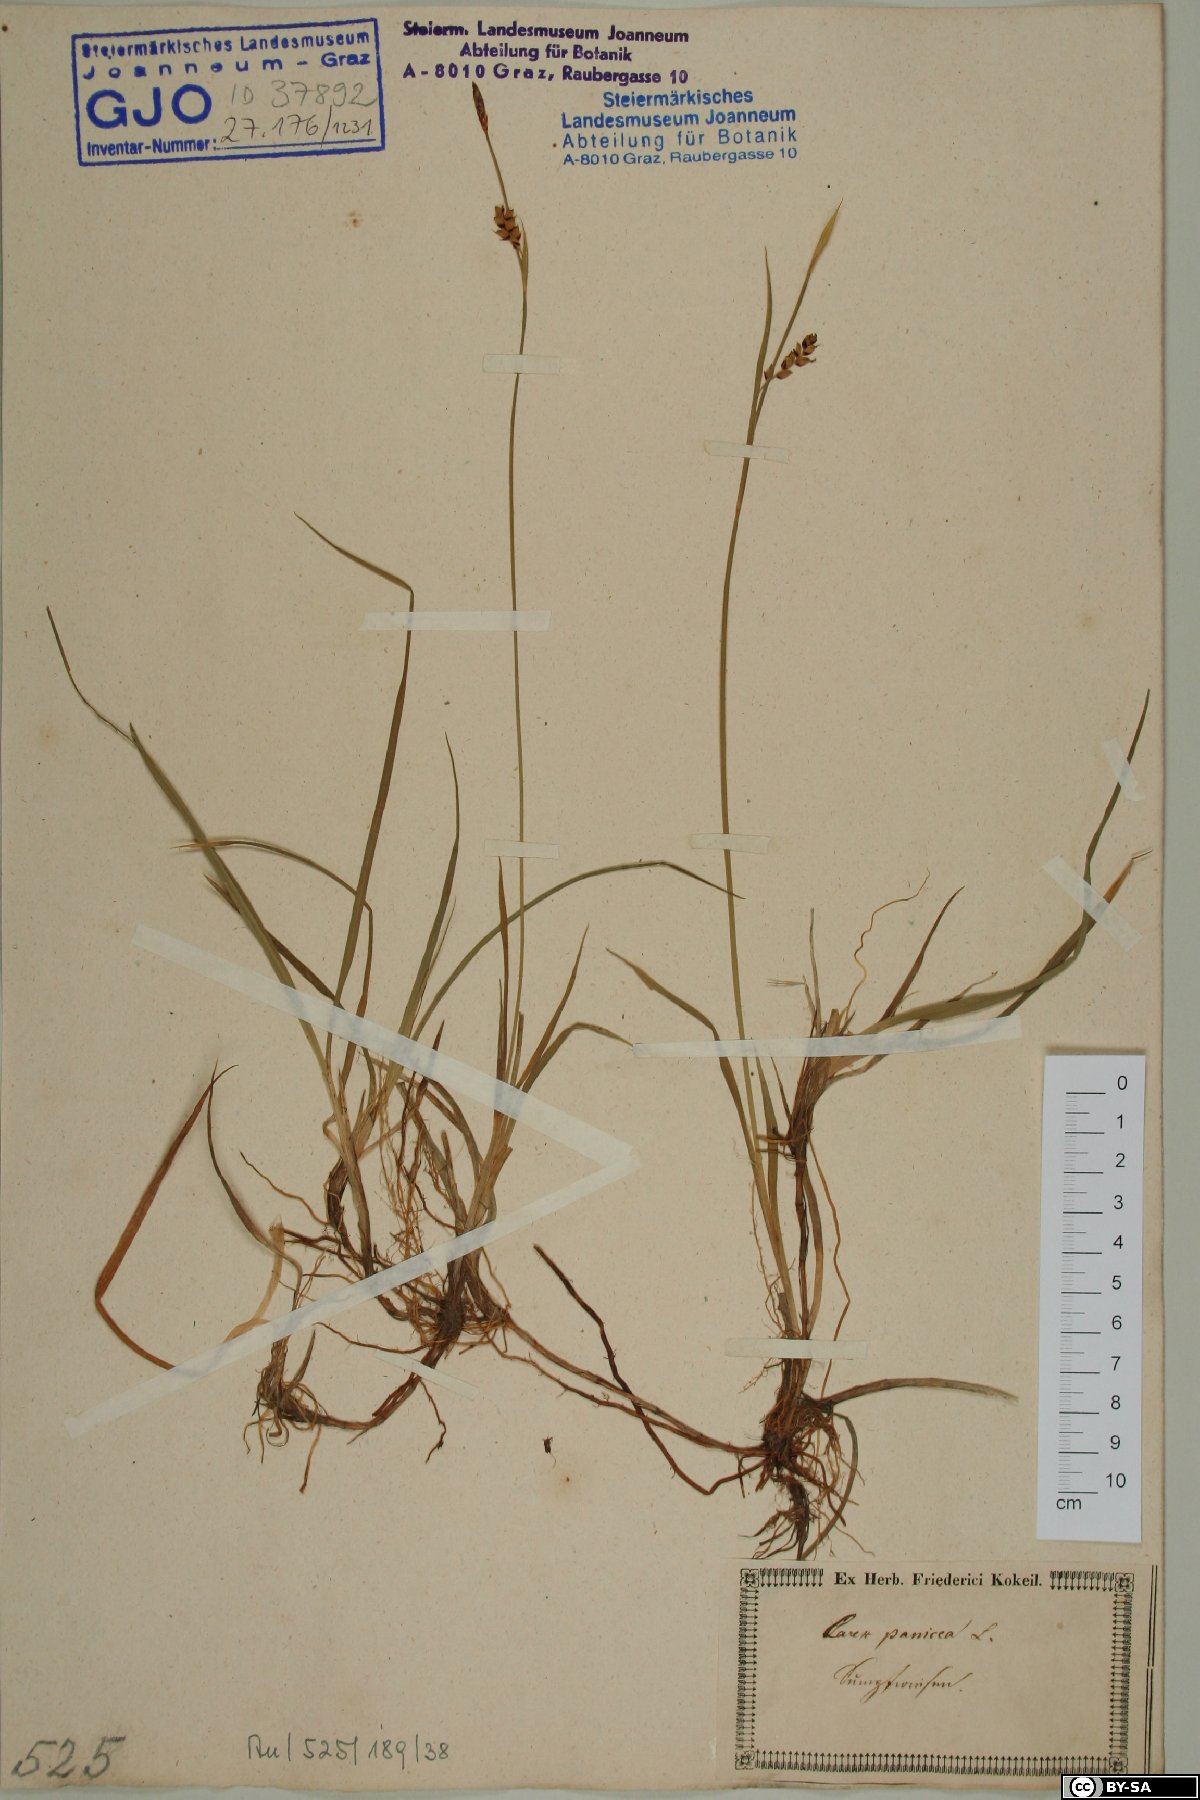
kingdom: Plantae
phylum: Tracheophyta
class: Liliopsida
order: Poales
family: Cyperaceae
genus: Carex
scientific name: Carex panicea
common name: Carnation sedge
